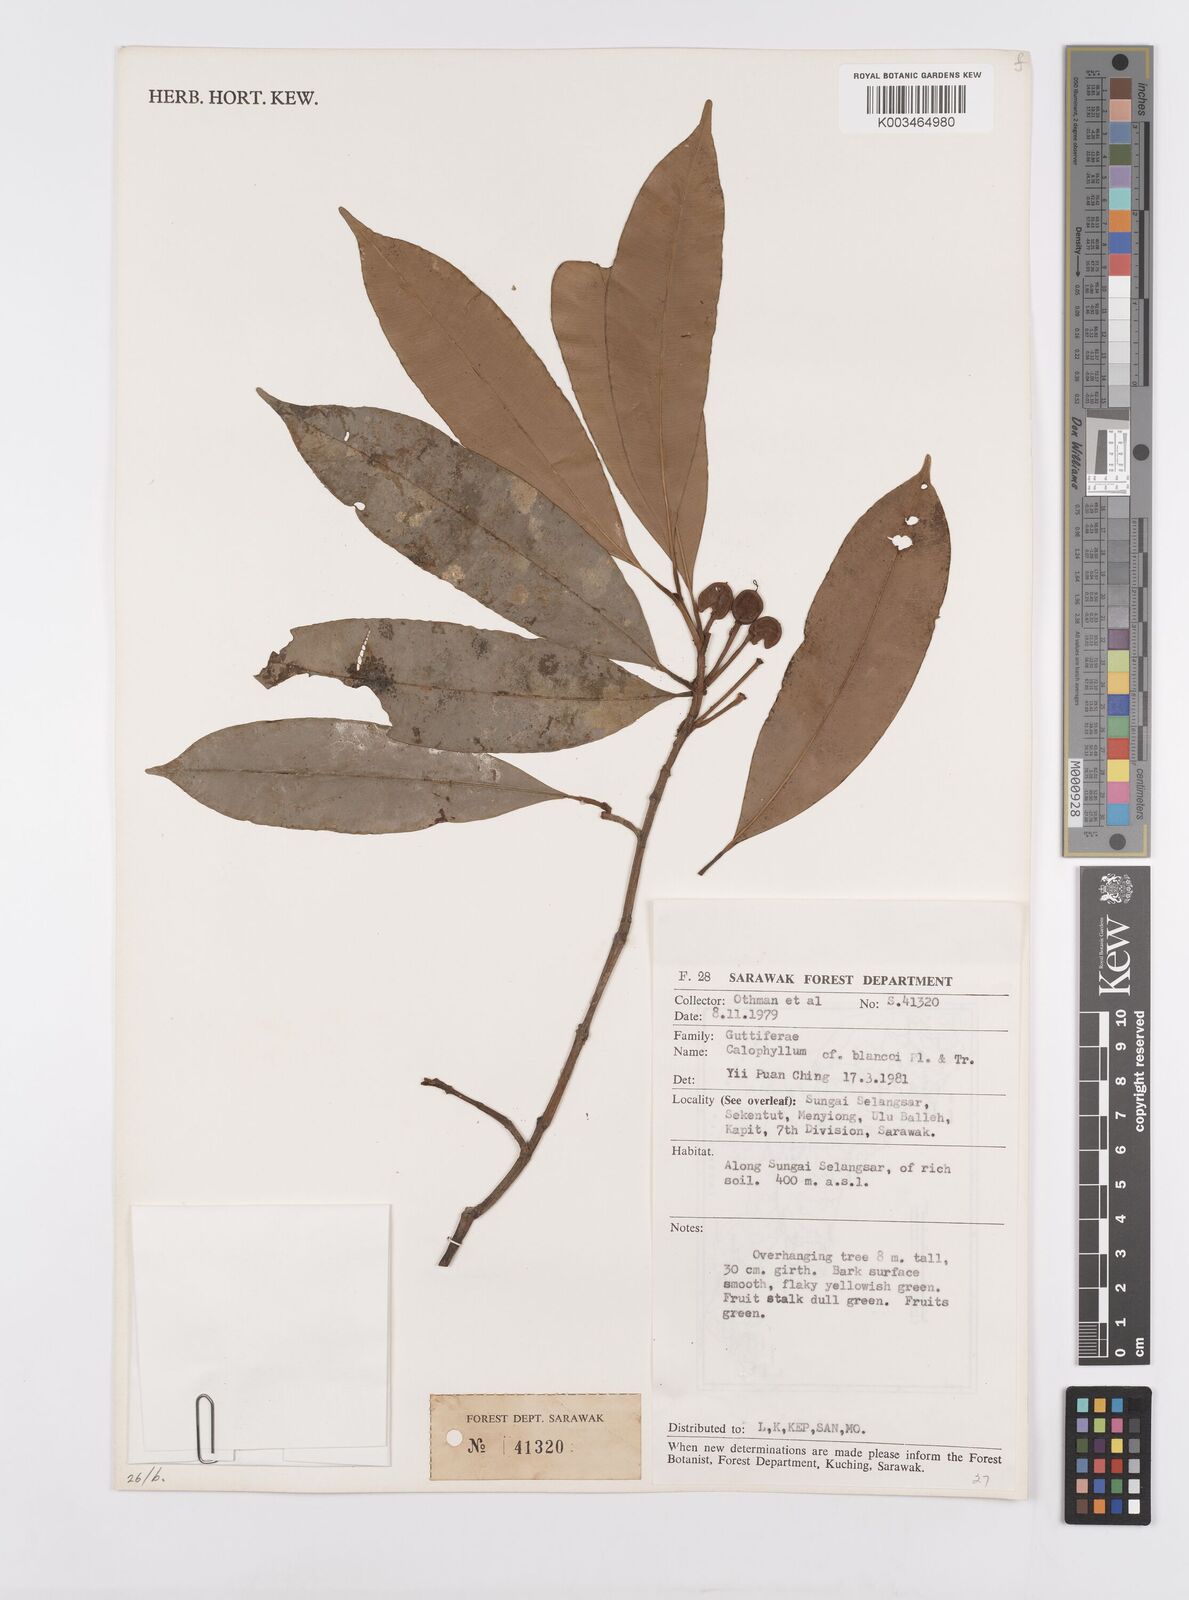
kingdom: Plantae
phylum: Tracheophyta
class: Magnoliopsida
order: Malpighiales
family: Calophyllaceae
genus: Calophyllum
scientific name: Calophyllum blancoi
